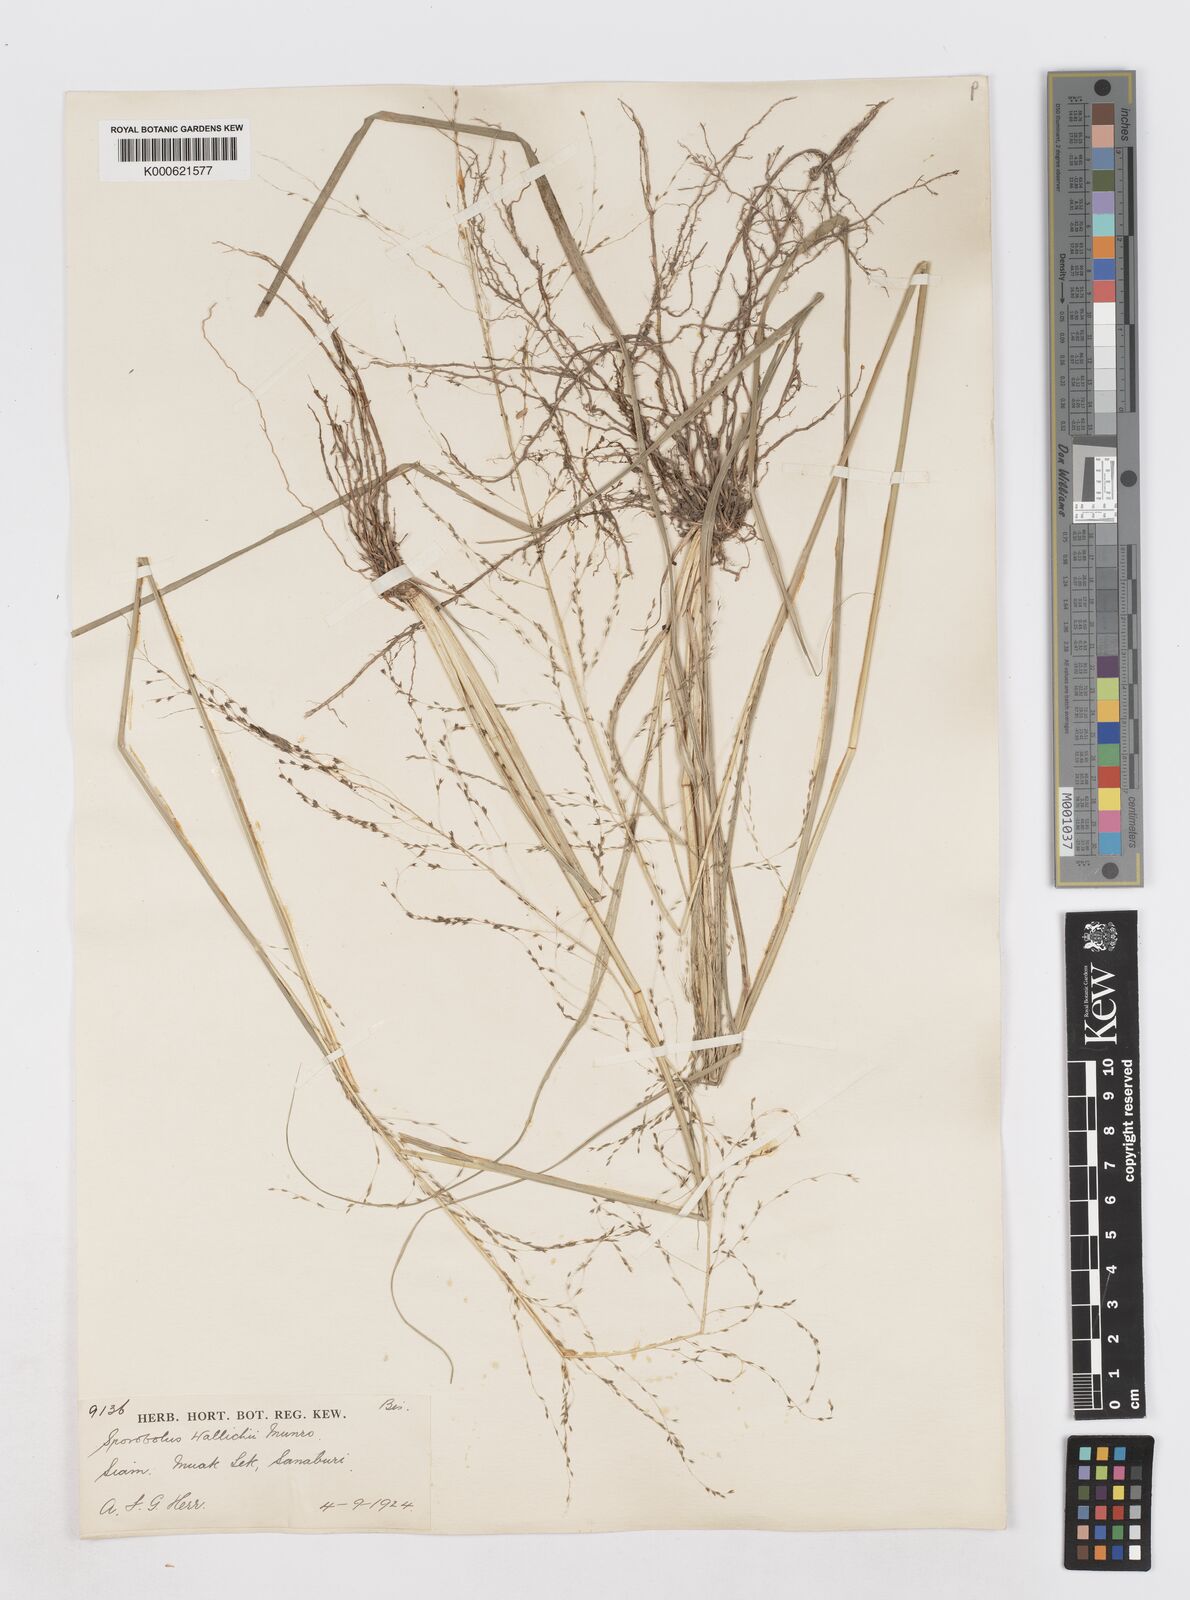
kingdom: Plantae
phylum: Tracheophyta
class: Liliopsida
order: Poales
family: Poaceae
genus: Sporobolus
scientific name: Sporobolus
